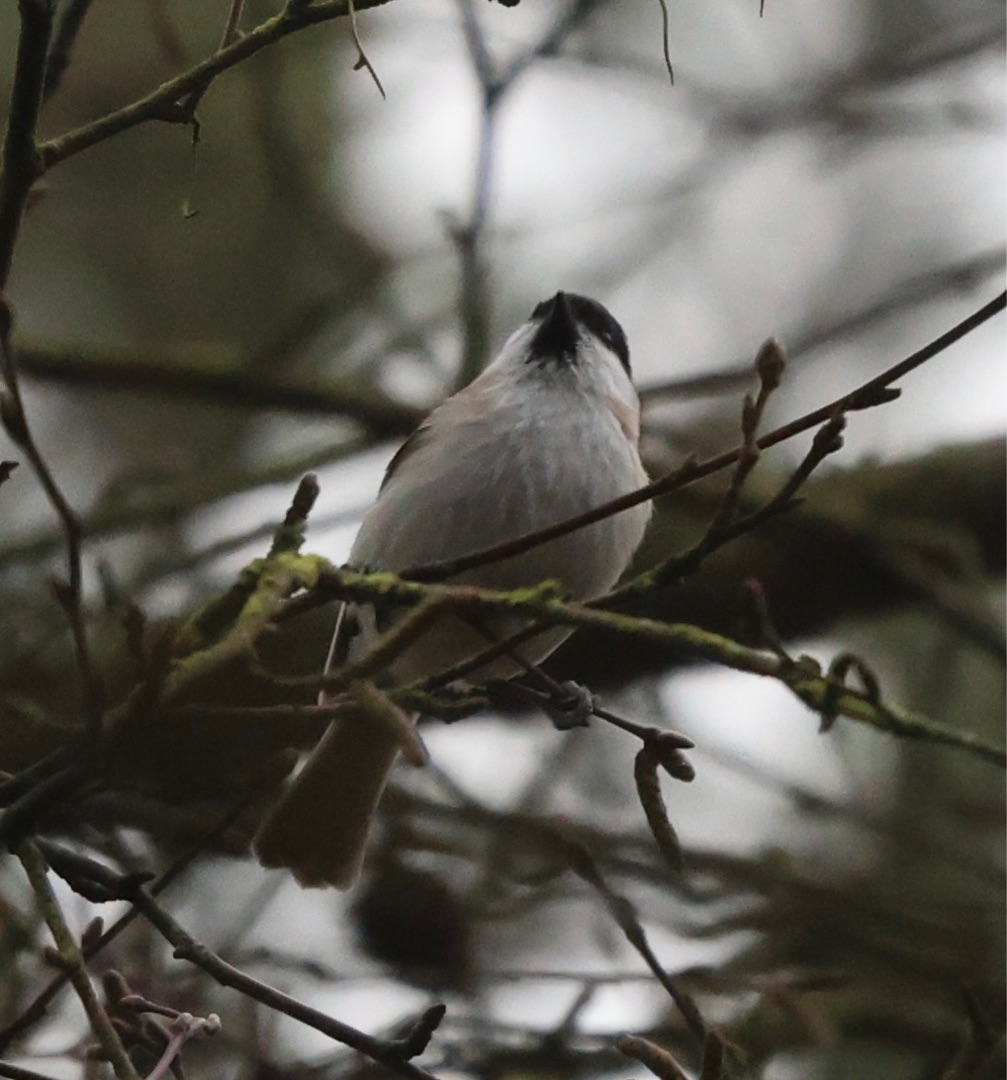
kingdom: Animalia
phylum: Chordata
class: Aves
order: Passeriformes
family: Paridae
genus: Poecile
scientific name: Poecile palustris
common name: Sumpmejse
